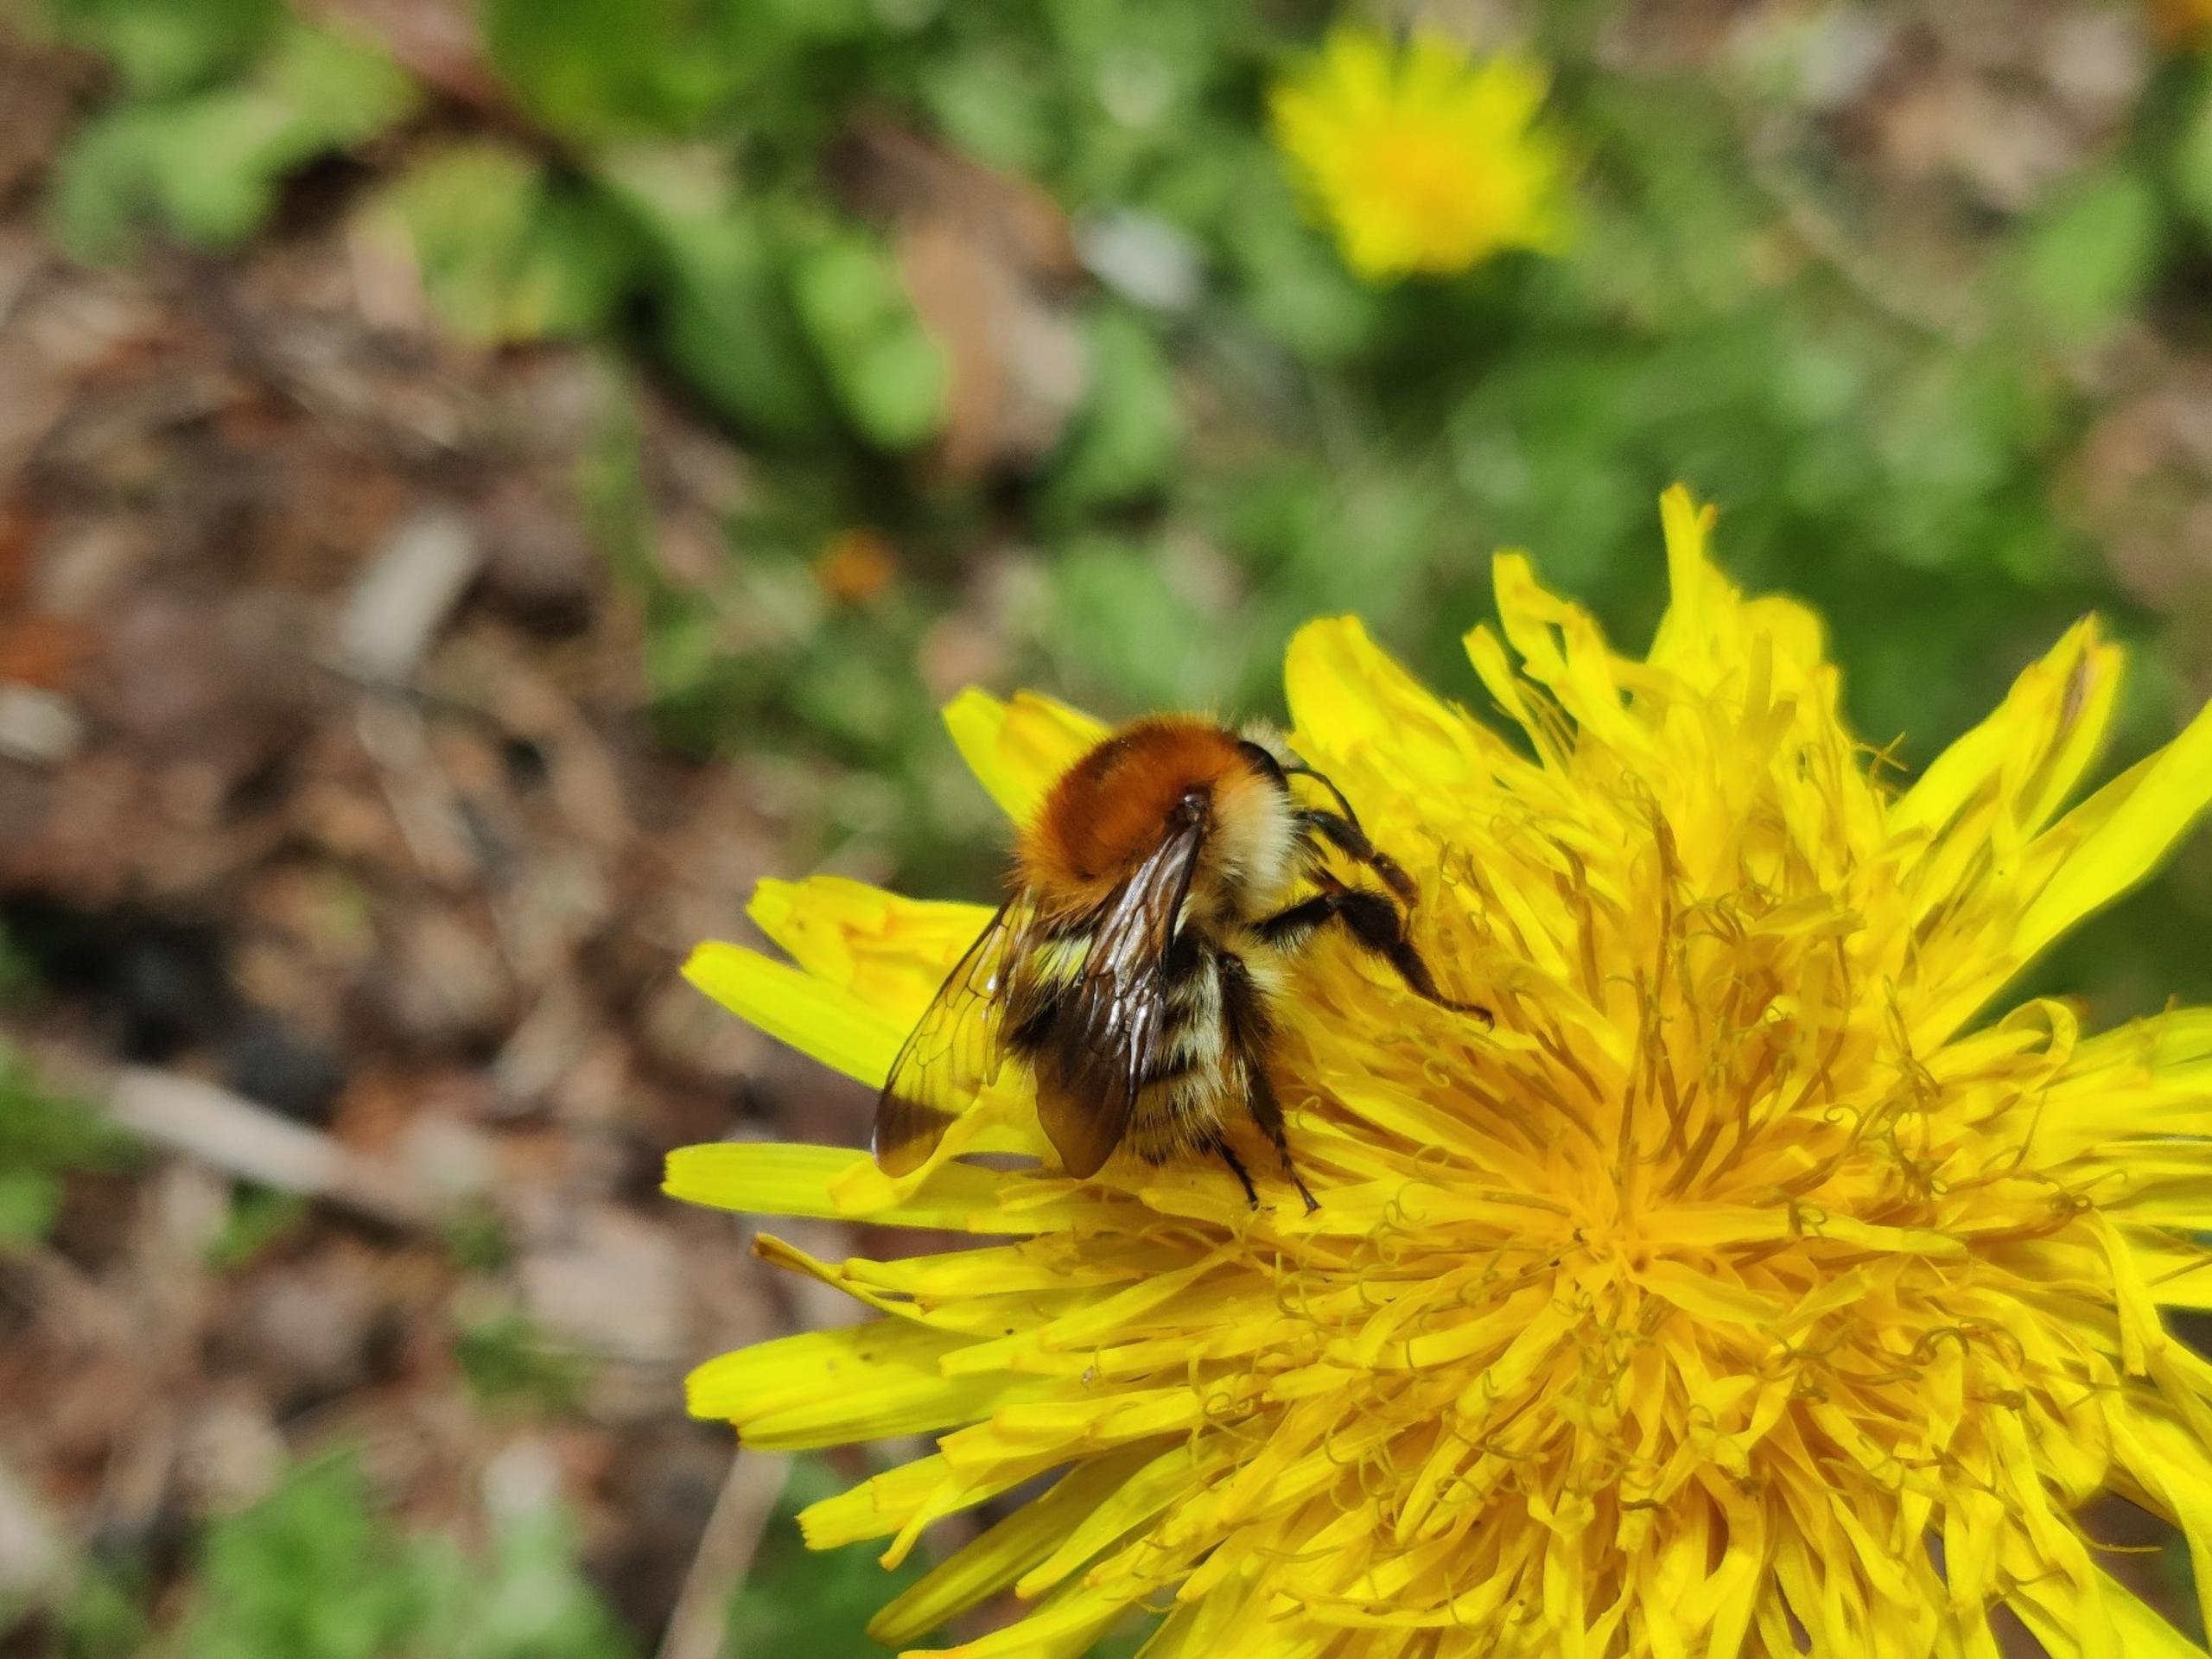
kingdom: Animalia
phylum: Arthropoda
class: Insecta
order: Hymenoptera
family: Apidae
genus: Bombus
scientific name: Bombus pascuorum
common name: Agerhumle
